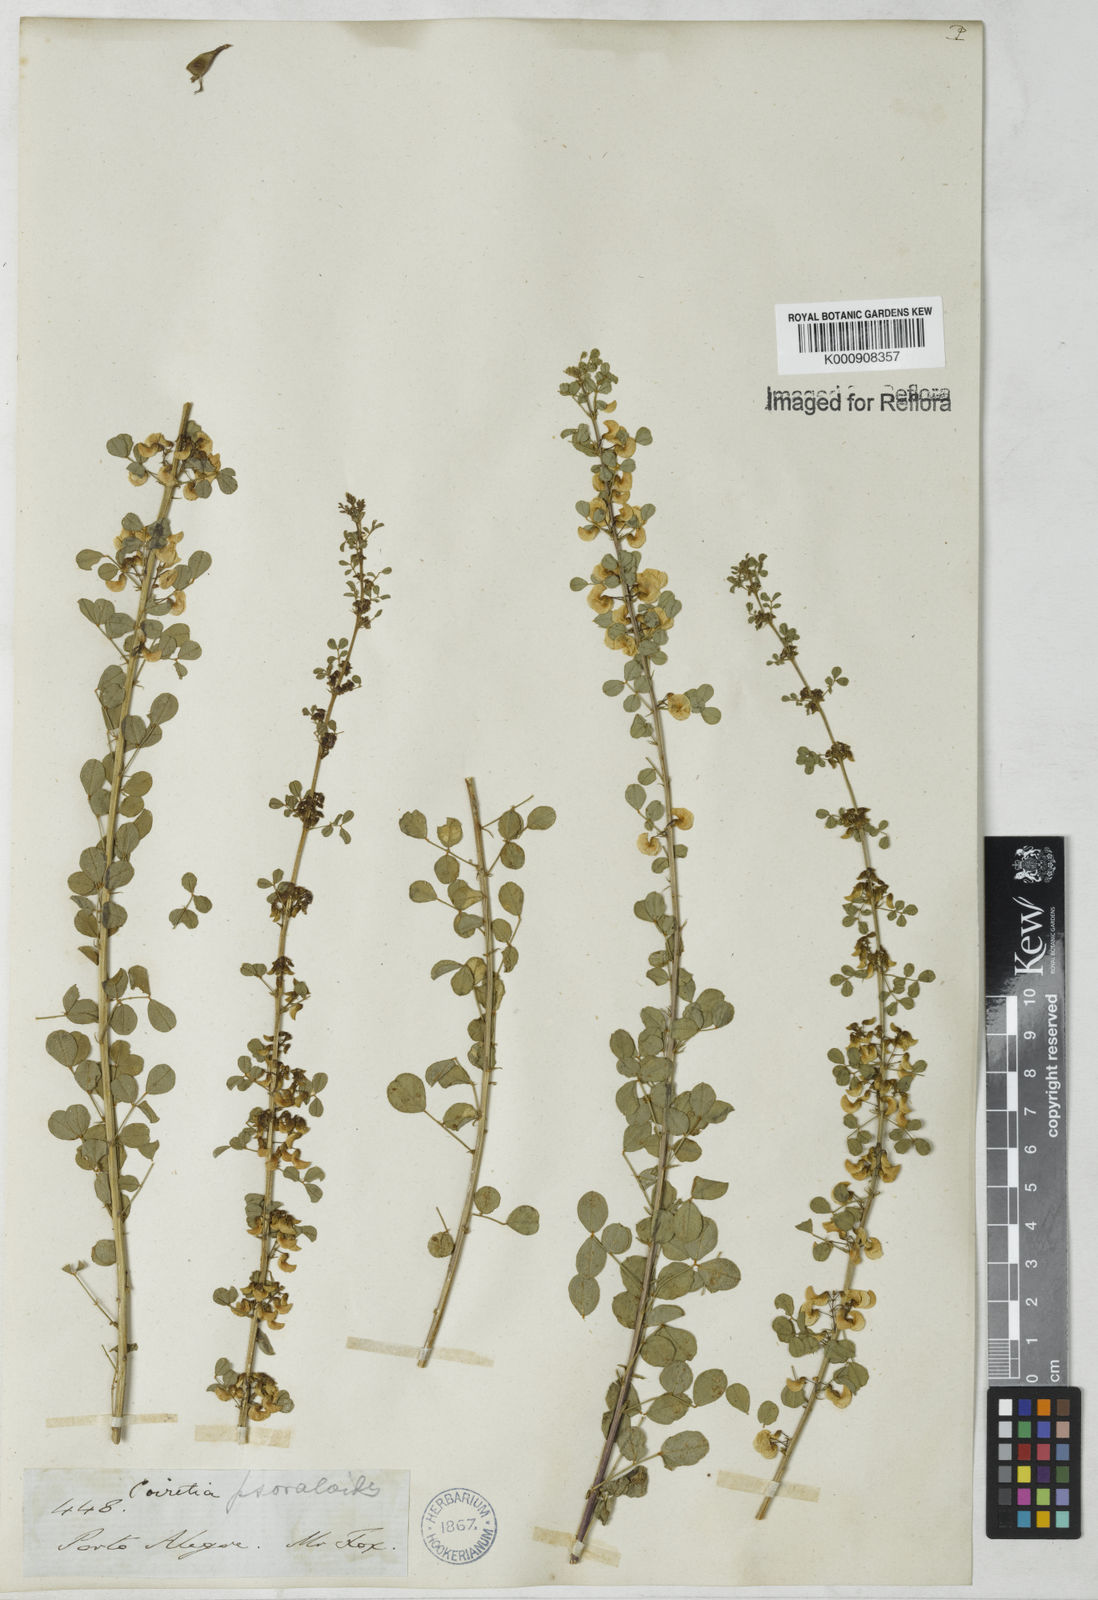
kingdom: Plantae
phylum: Tracheophyta
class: Magnoliopsida
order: Fabales
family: Fabaceae
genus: Poiretia
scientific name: Poiretia
